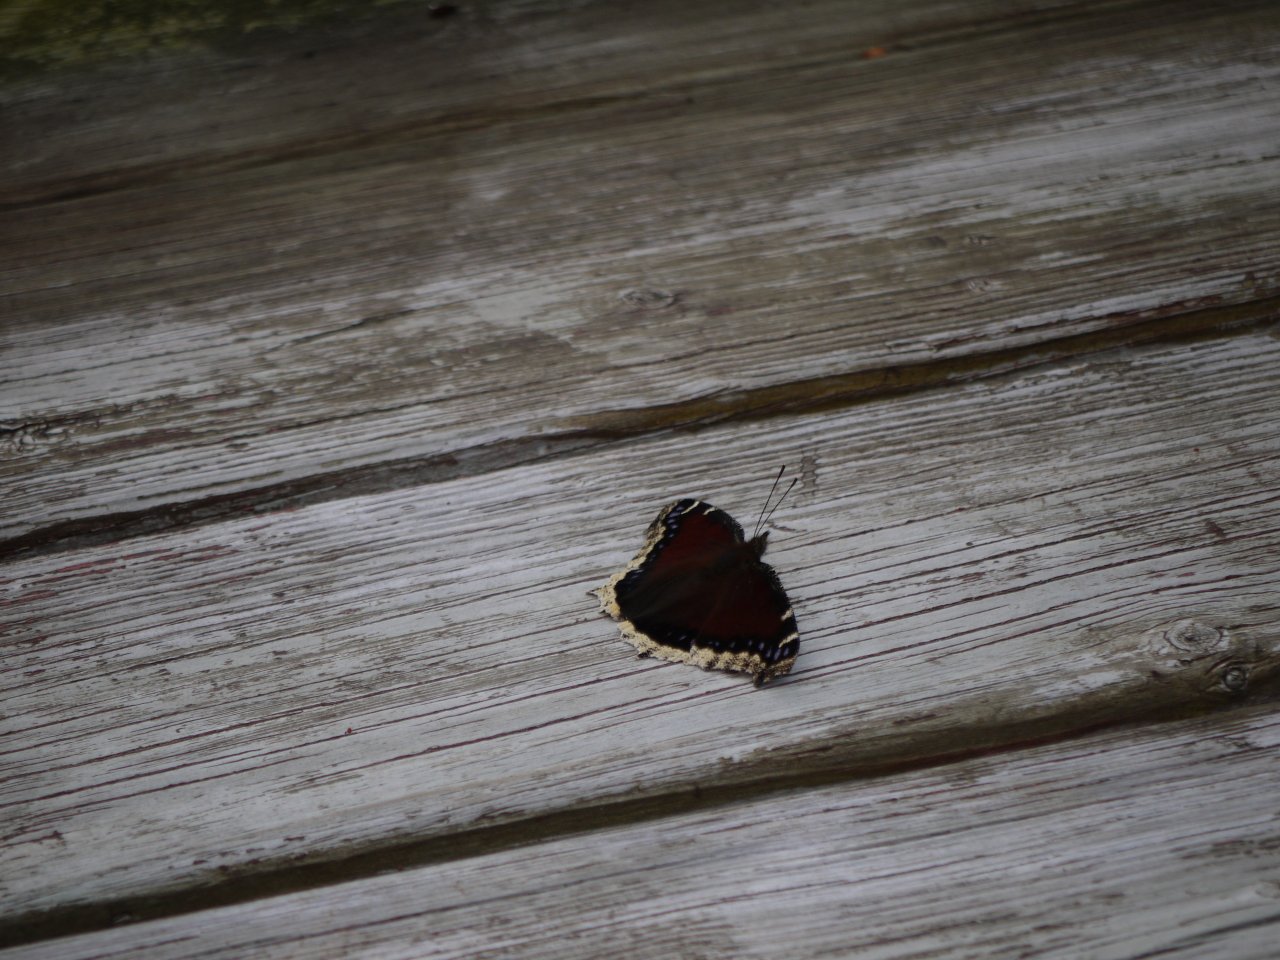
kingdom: Animalia
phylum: Arthropoda
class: Insecta
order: Lepidoptera
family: Nymphalidae
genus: Nymphalis
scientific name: Nymphalis antiopa
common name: Mourning Cloak
